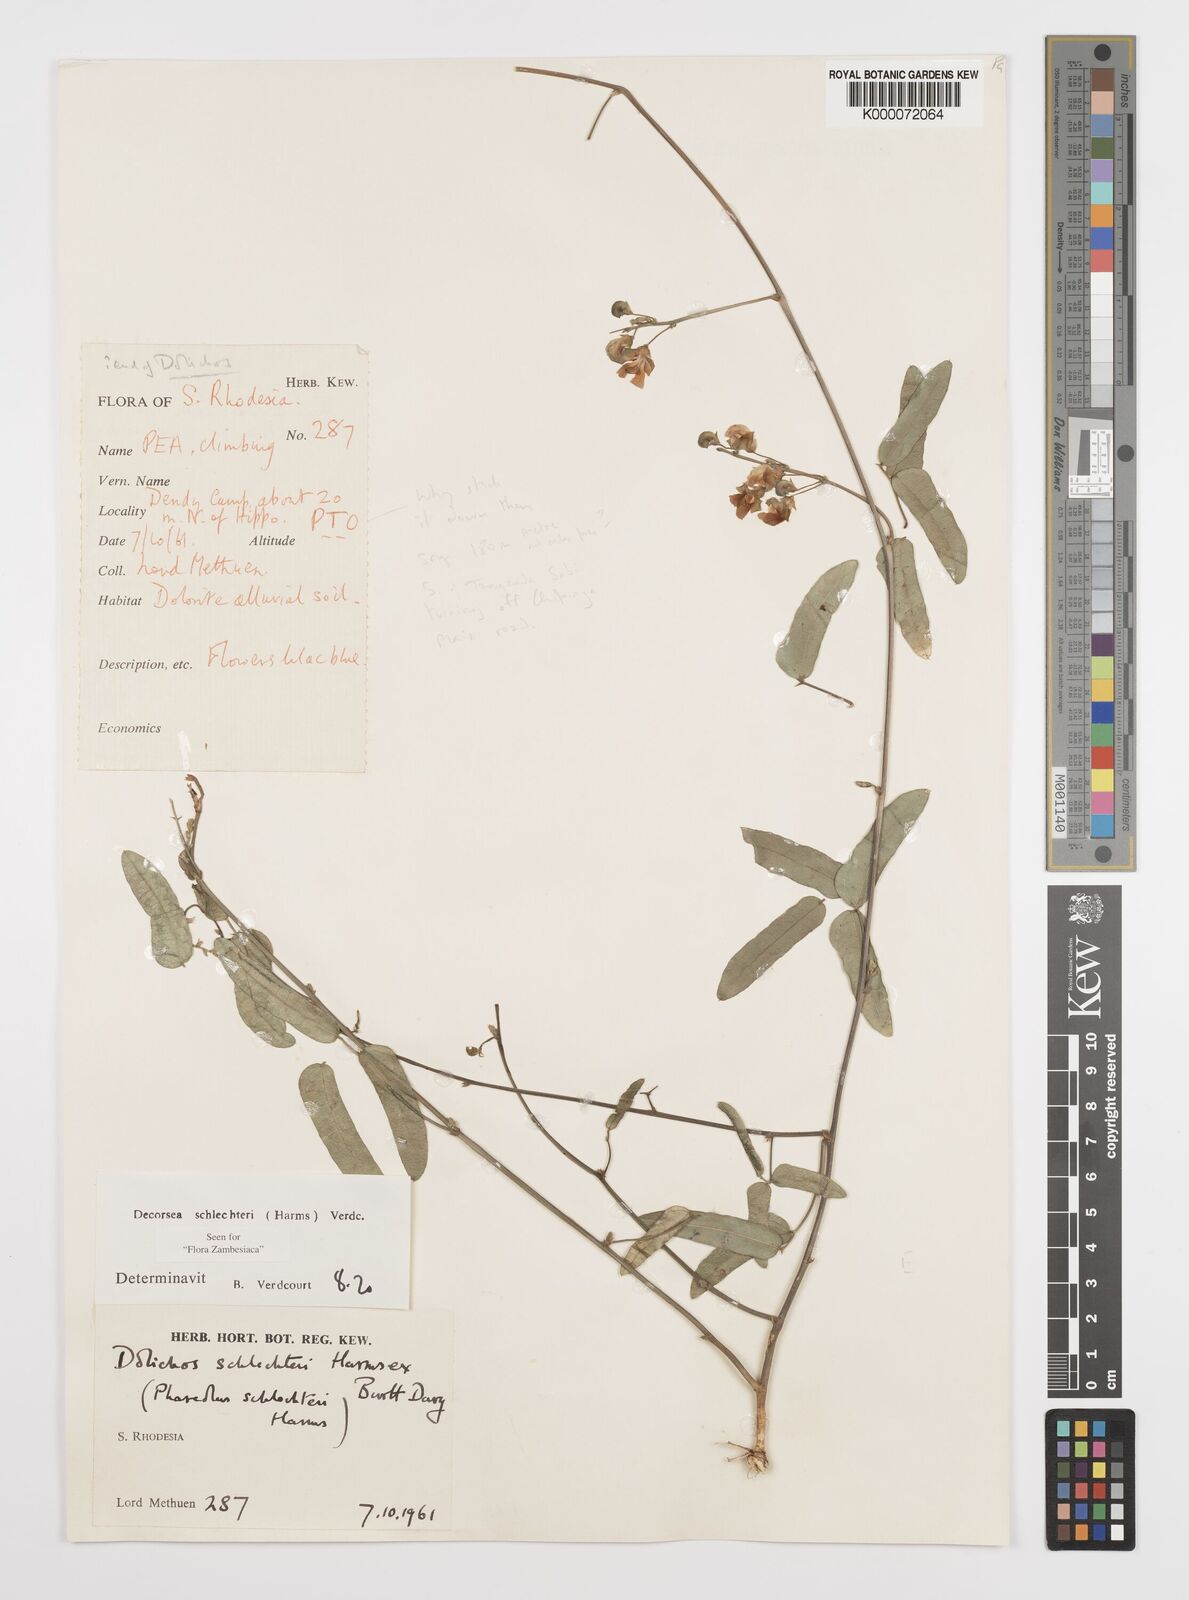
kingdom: Plantae
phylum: Tracheophyta
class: Magnoliopsida
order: Fabales
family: Fabaceae
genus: Decorsea
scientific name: Decorsea schlechteri
